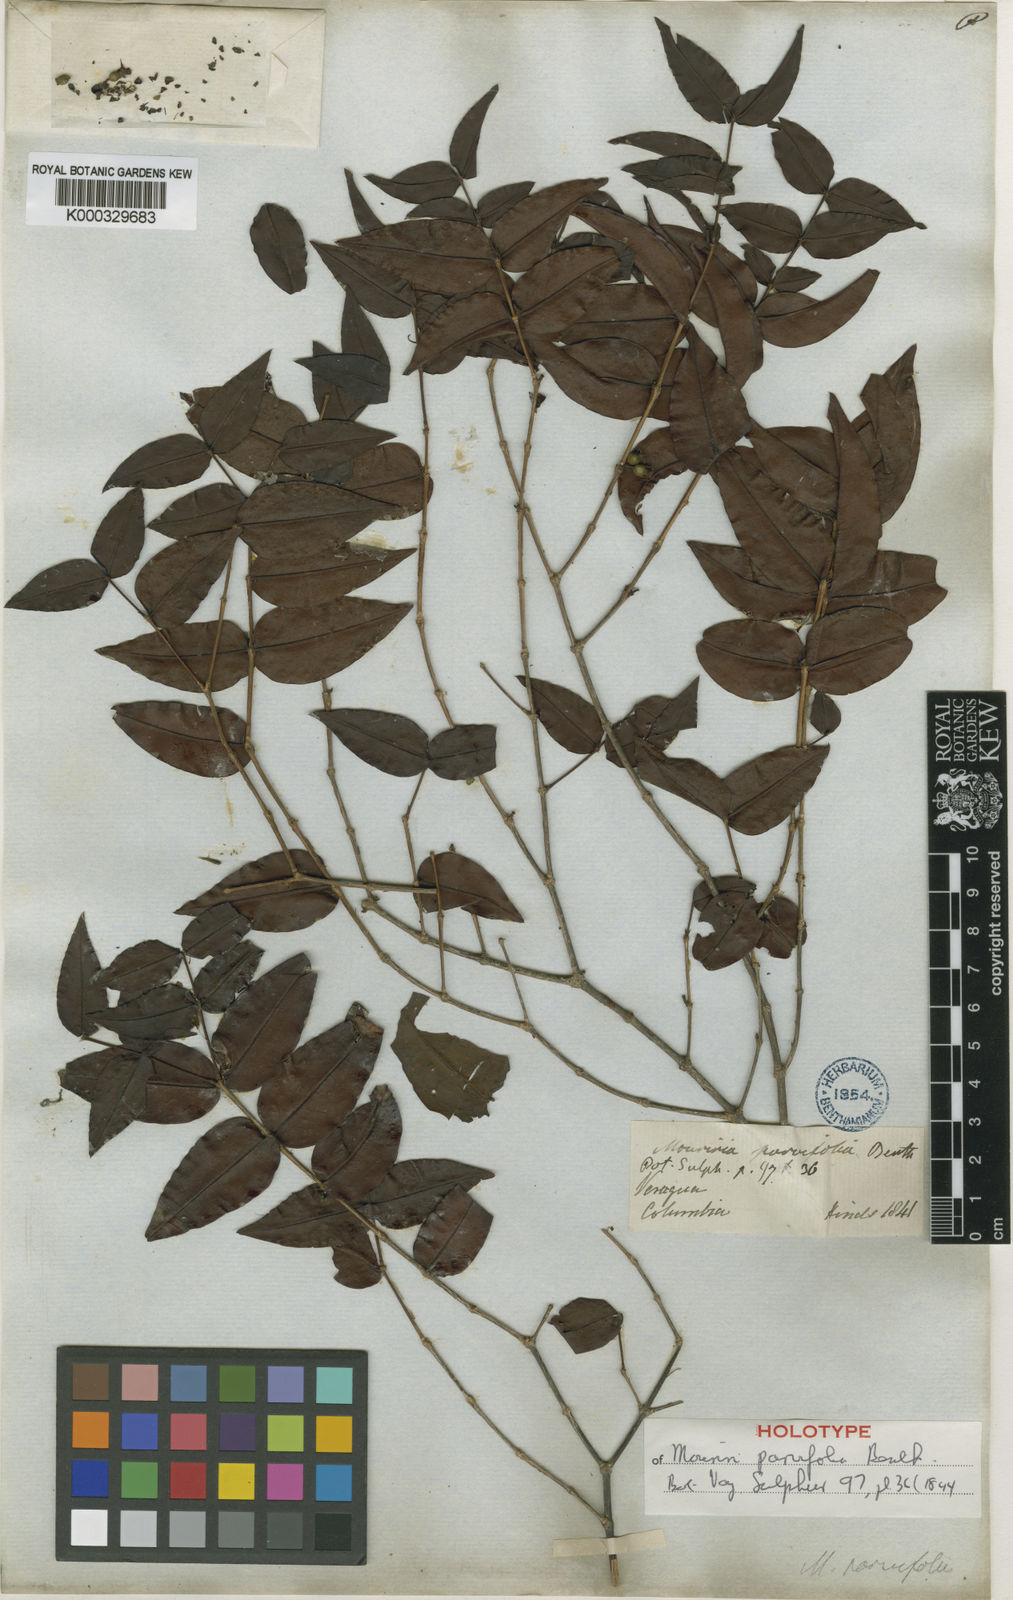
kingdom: Plantae
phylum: Tracheophyta
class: Magnoliopsida
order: Myrtales
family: Melastomataceae
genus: Mouriri
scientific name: Mouriri myrtilloides
